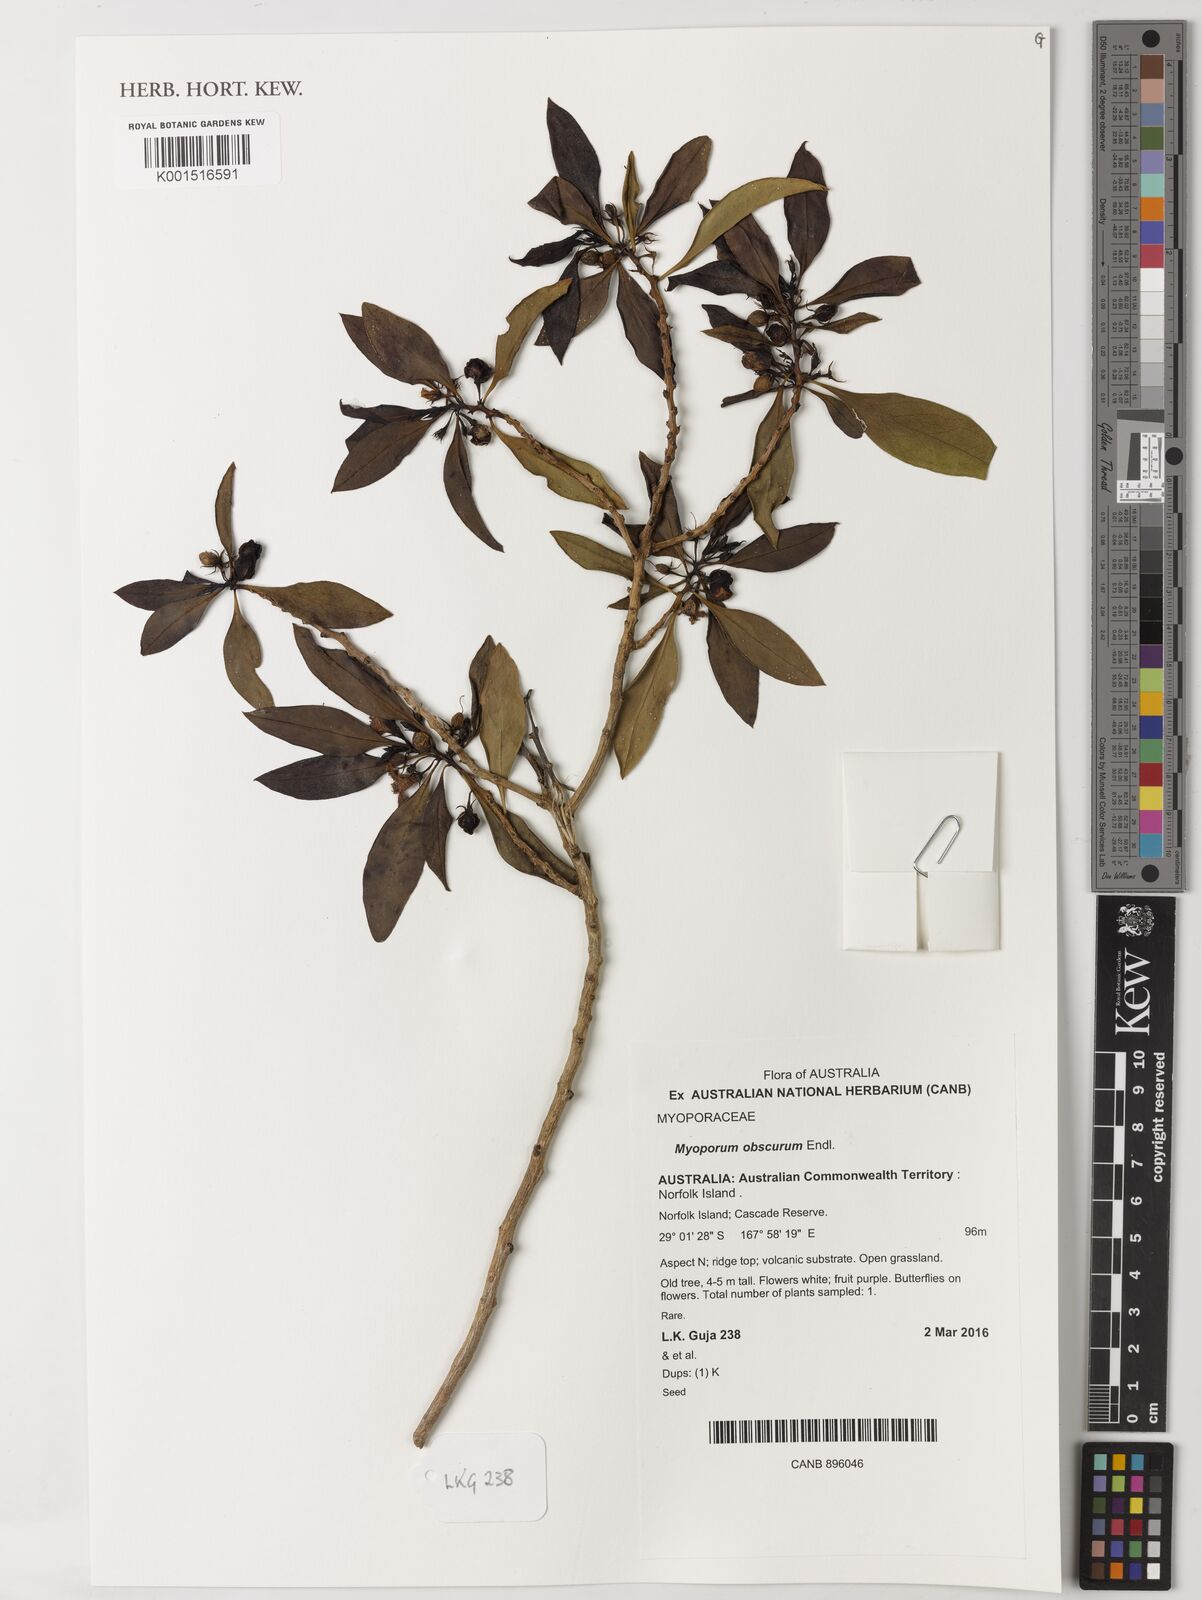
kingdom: Plantae
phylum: Tracheophyta
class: Magnoliopsida
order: Lamiales
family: Scrophulariaceae
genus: Myoporum
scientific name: Myoporum obscurum
